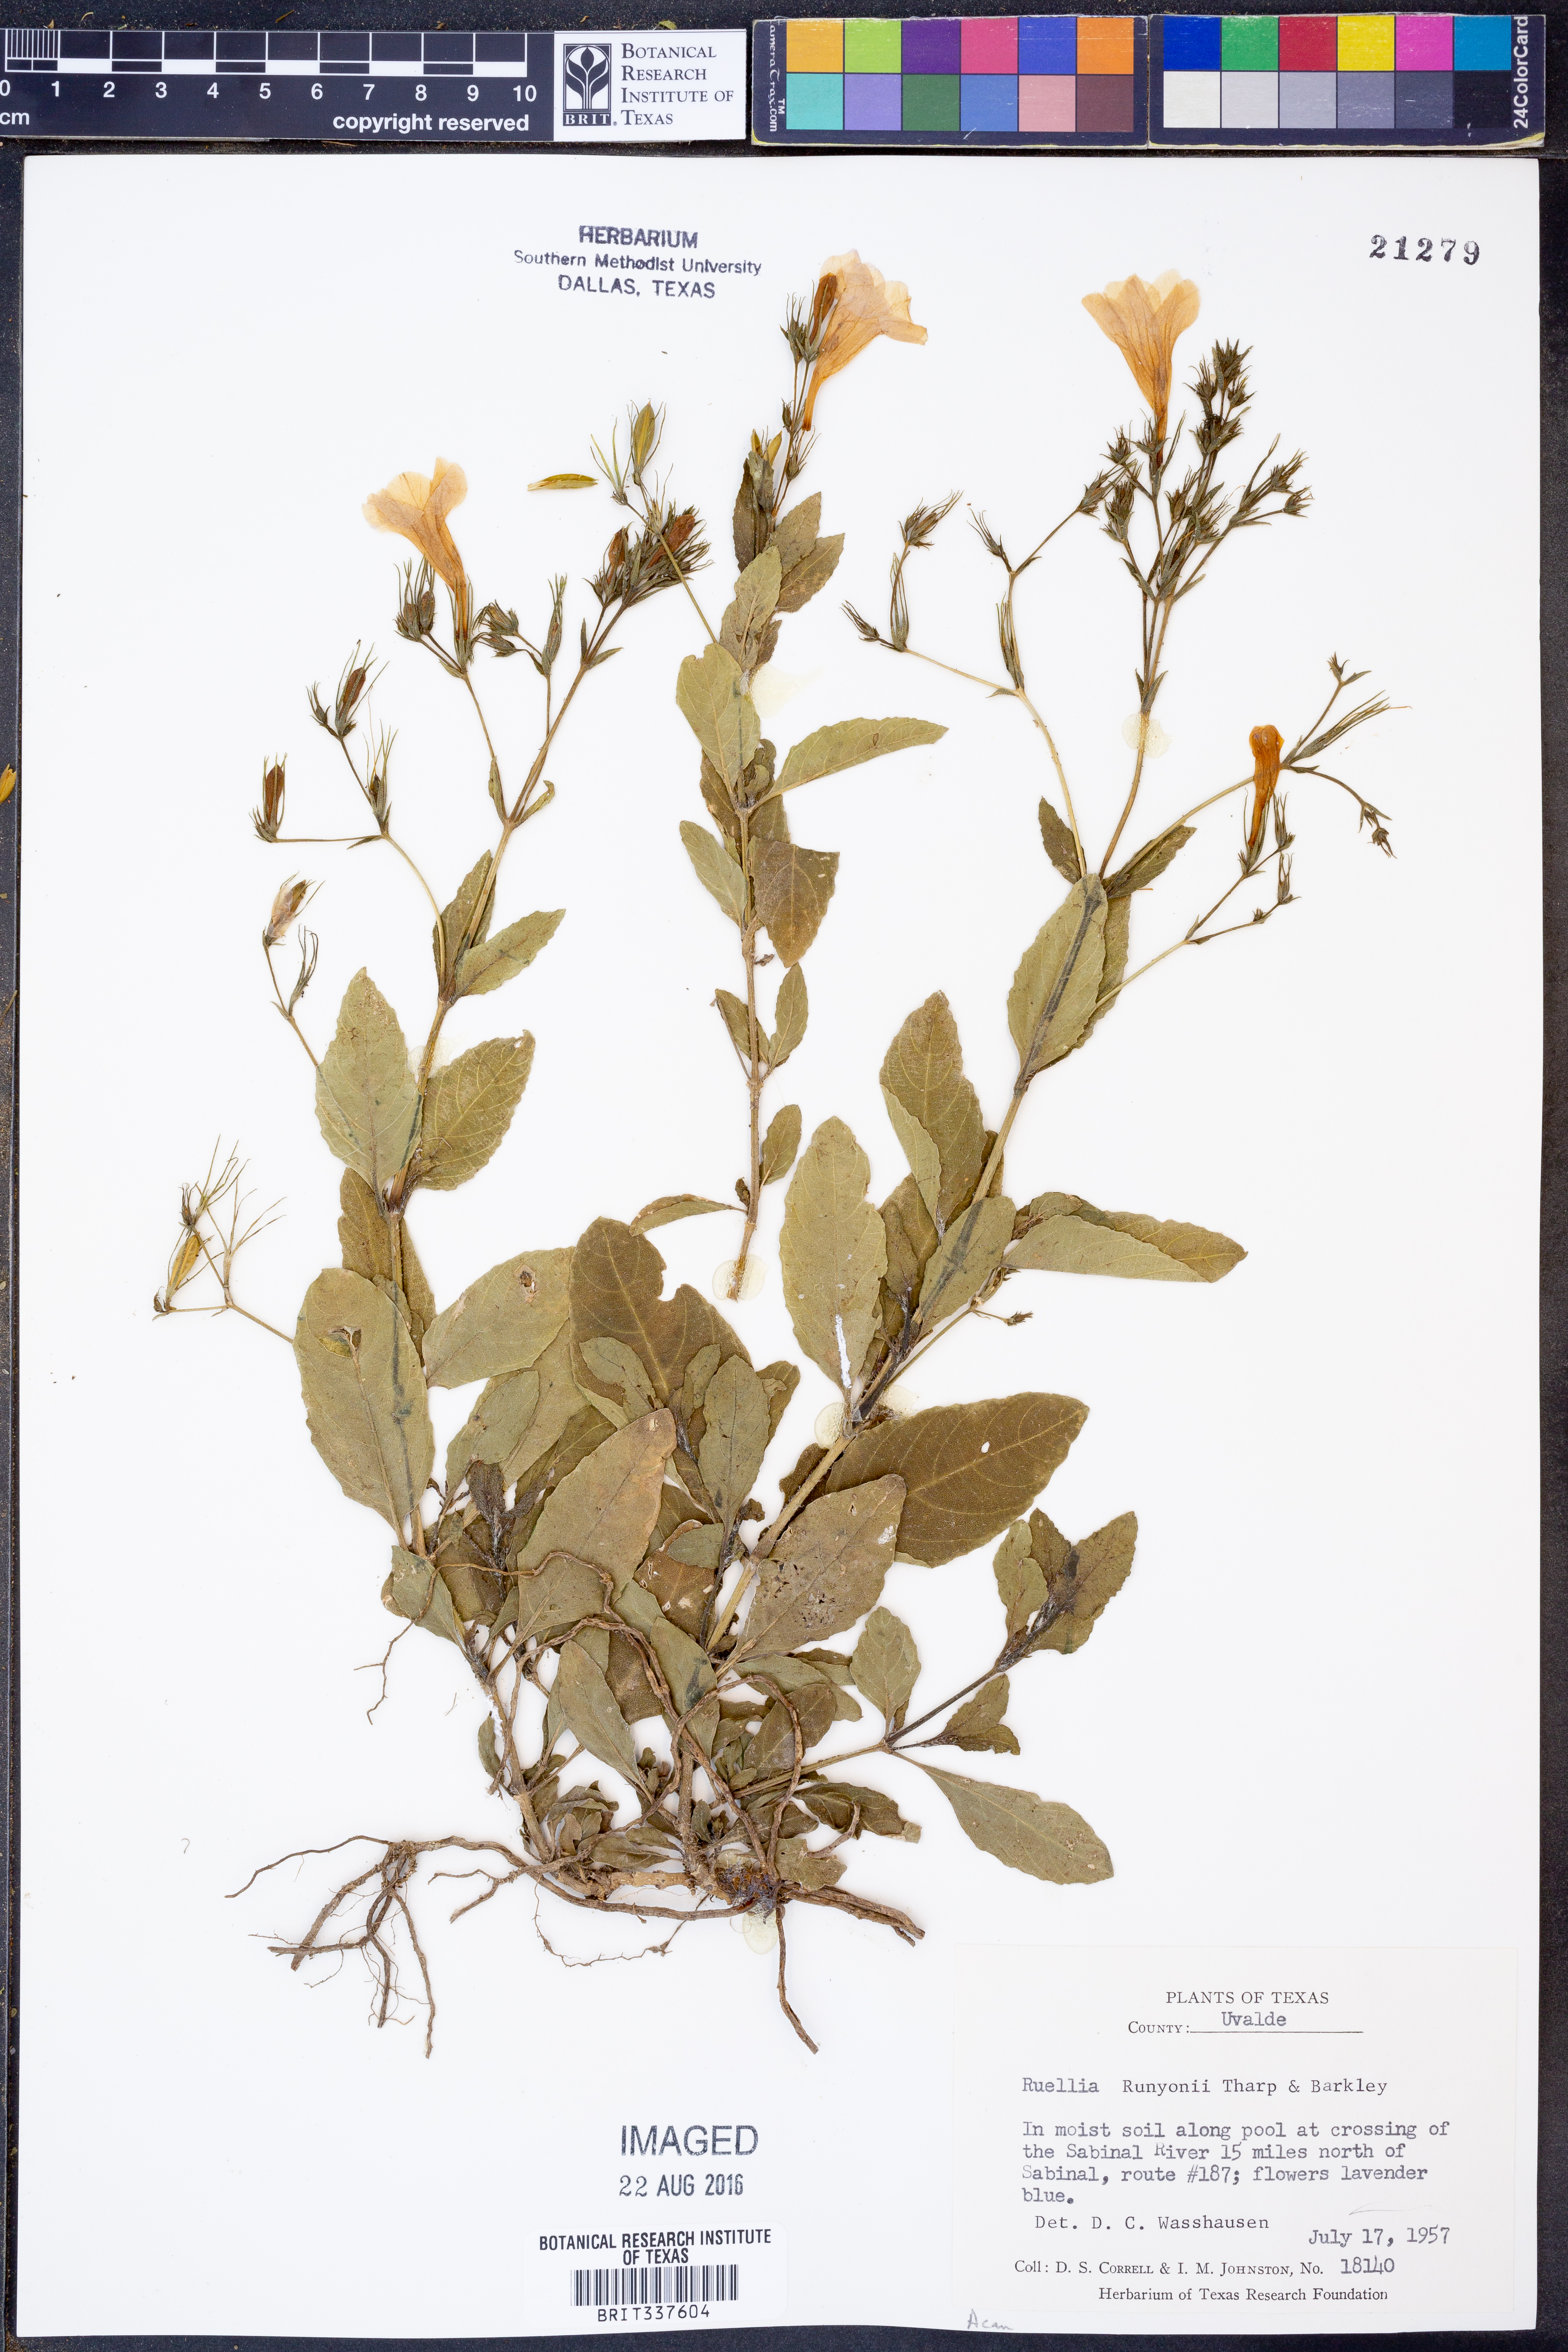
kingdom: Plantae
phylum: Tracheophyta
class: Magnoliopsida
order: Lamiales
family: Acanthaceae
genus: Ruellia
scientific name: Ruellia ciliatiflora
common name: Hairyflower wild petunia
